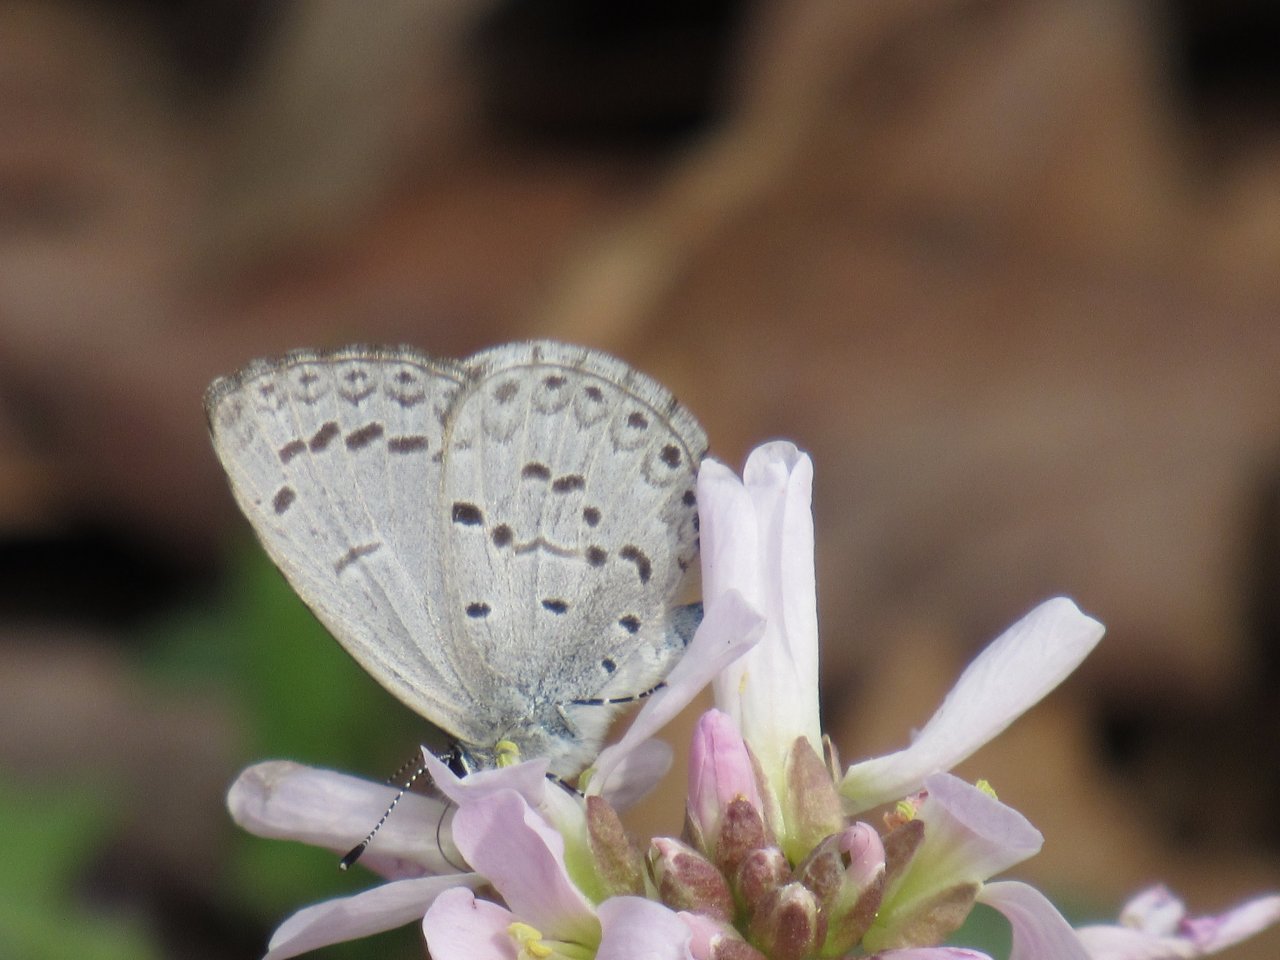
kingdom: Animalia
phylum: Arthropoda
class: Insecta
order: Lepidoptera
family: Lycaenidae
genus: Celastrina
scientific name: Celastrina
